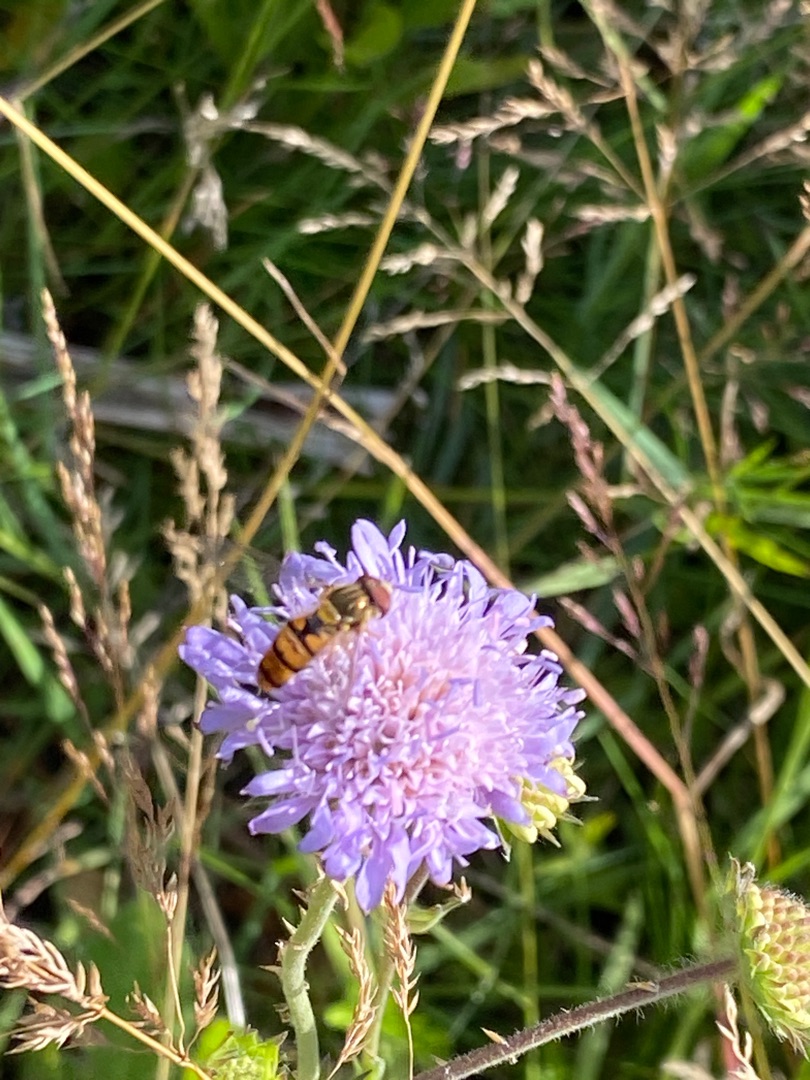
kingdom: Animalia
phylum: Arthropoda
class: Insecta
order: Diptera
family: Syrphidae
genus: Episyrphus
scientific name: Episyrphus balteatus
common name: Dobbeltbåndet svirreflue
